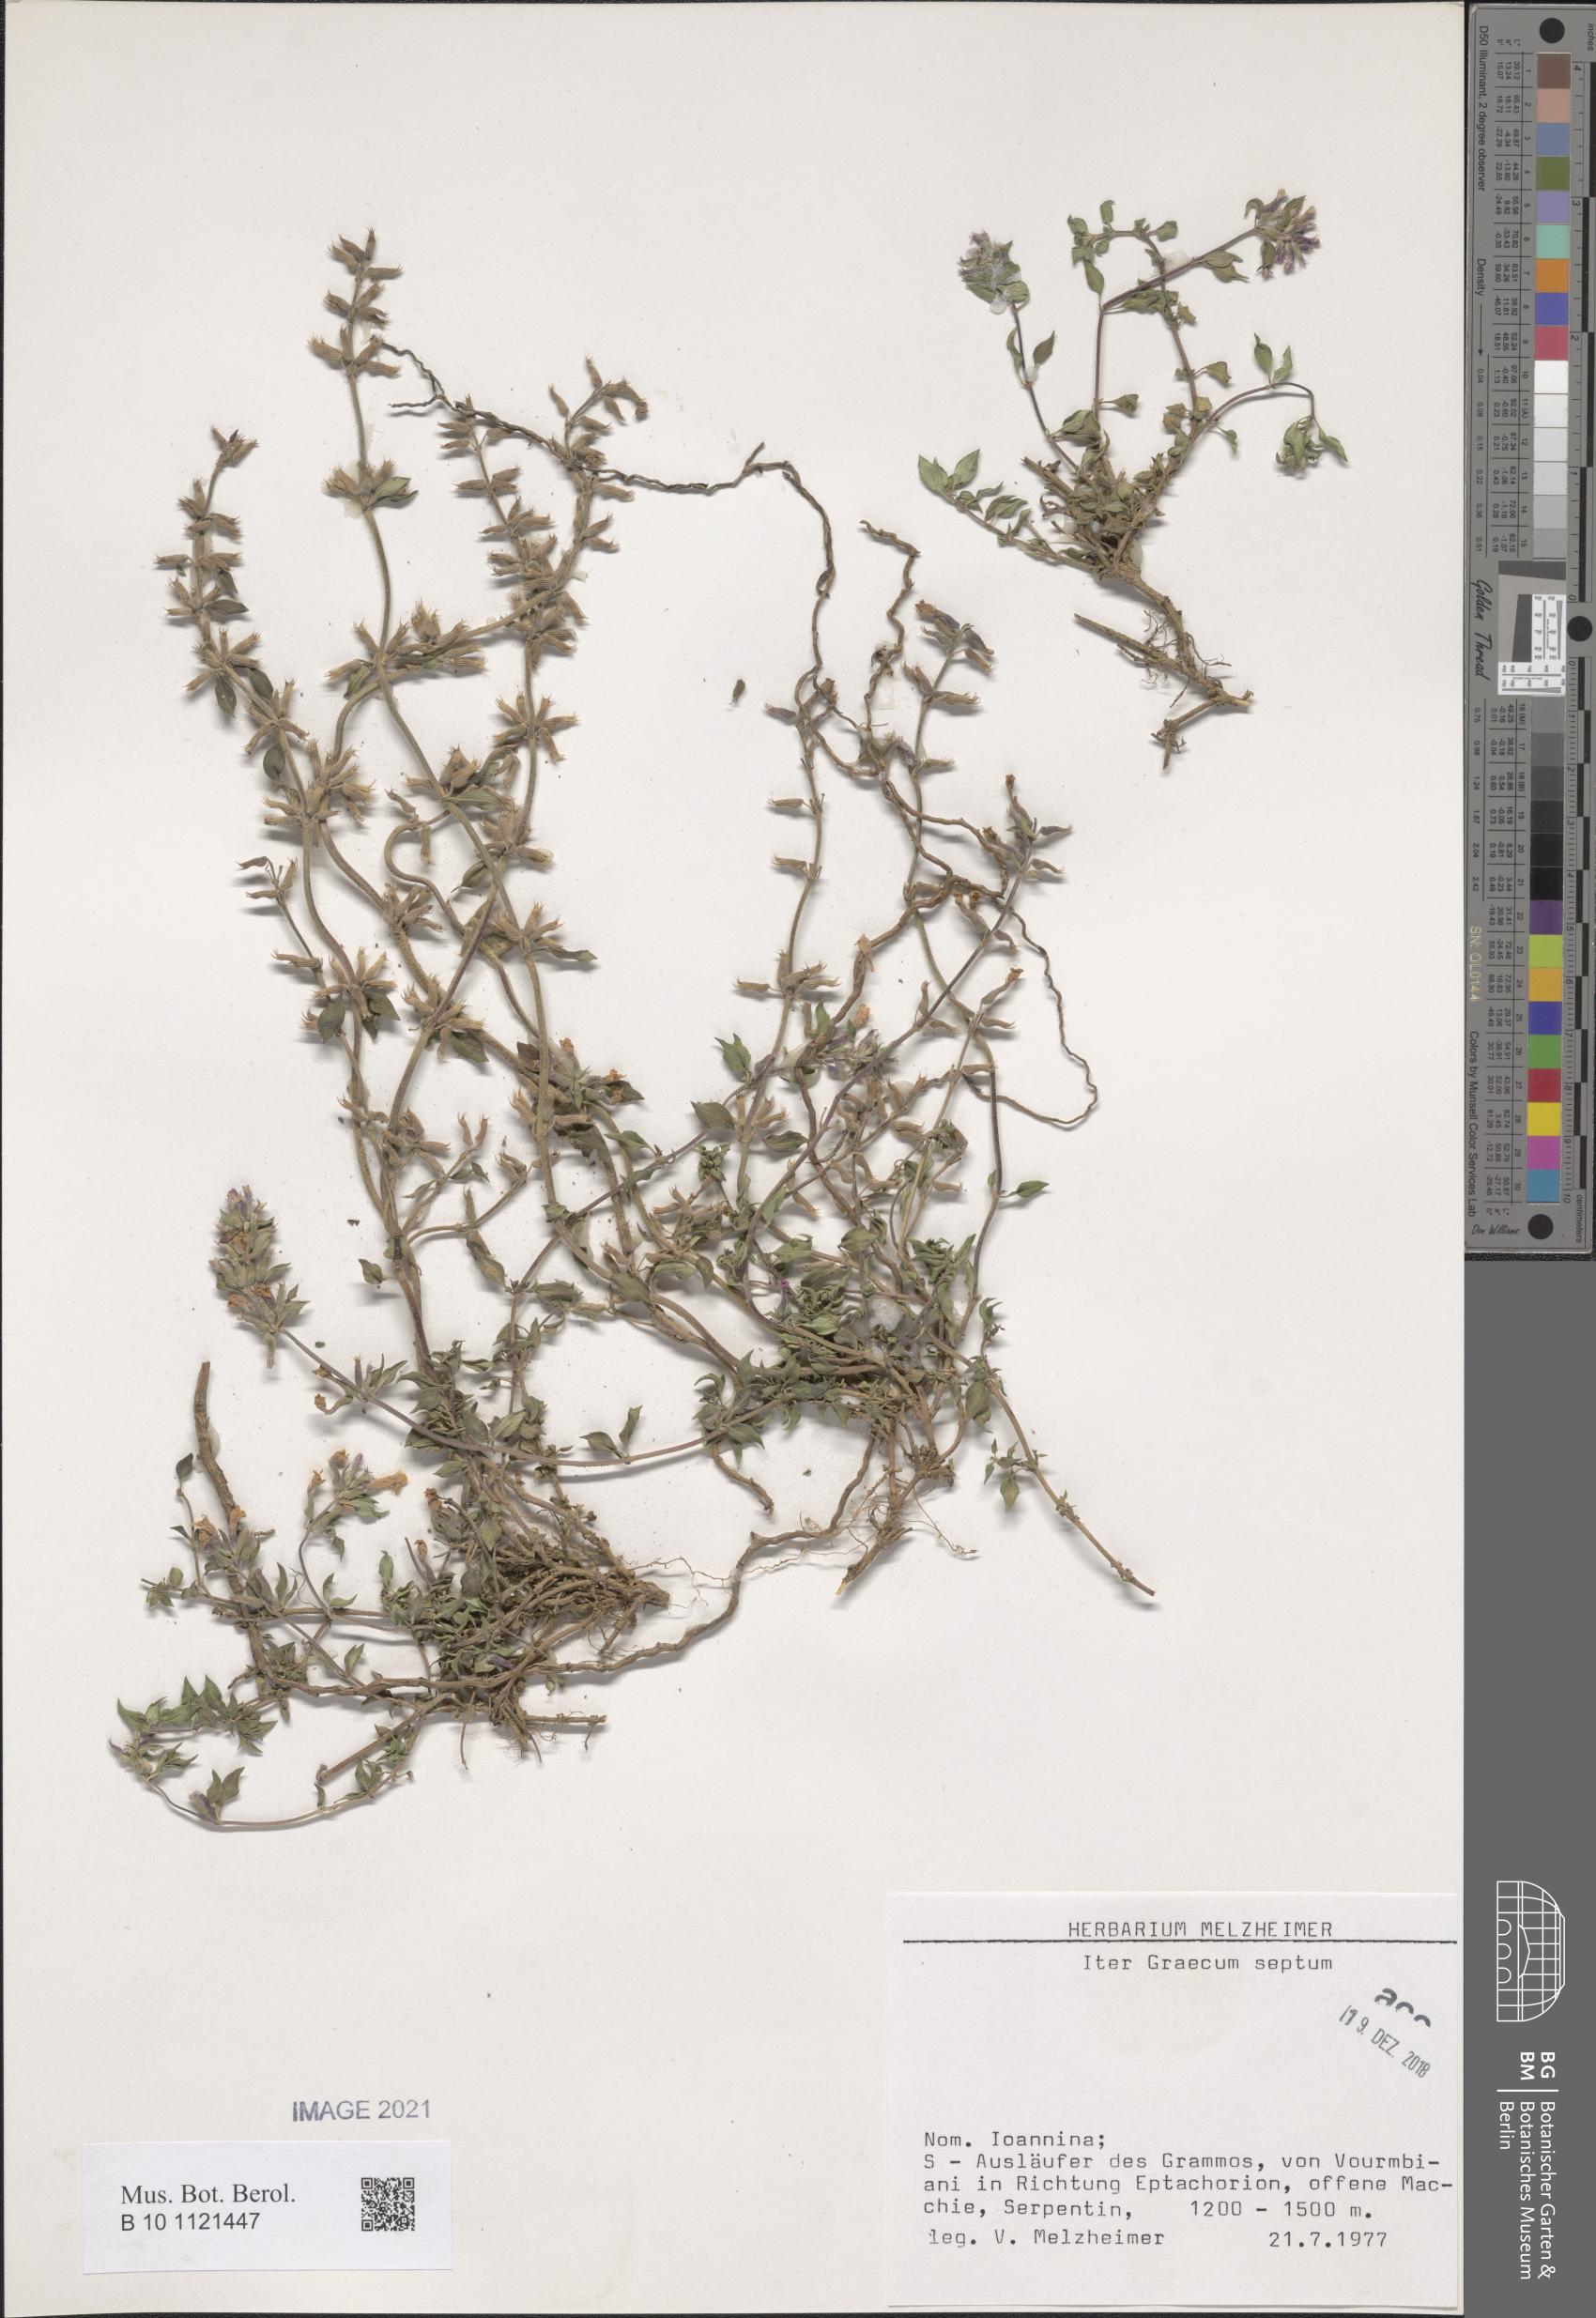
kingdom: Plantae
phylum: Tracheophyta
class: Magnoliopsida
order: Lamiales
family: Lamiaceae
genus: Acinos
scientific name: Acinos
